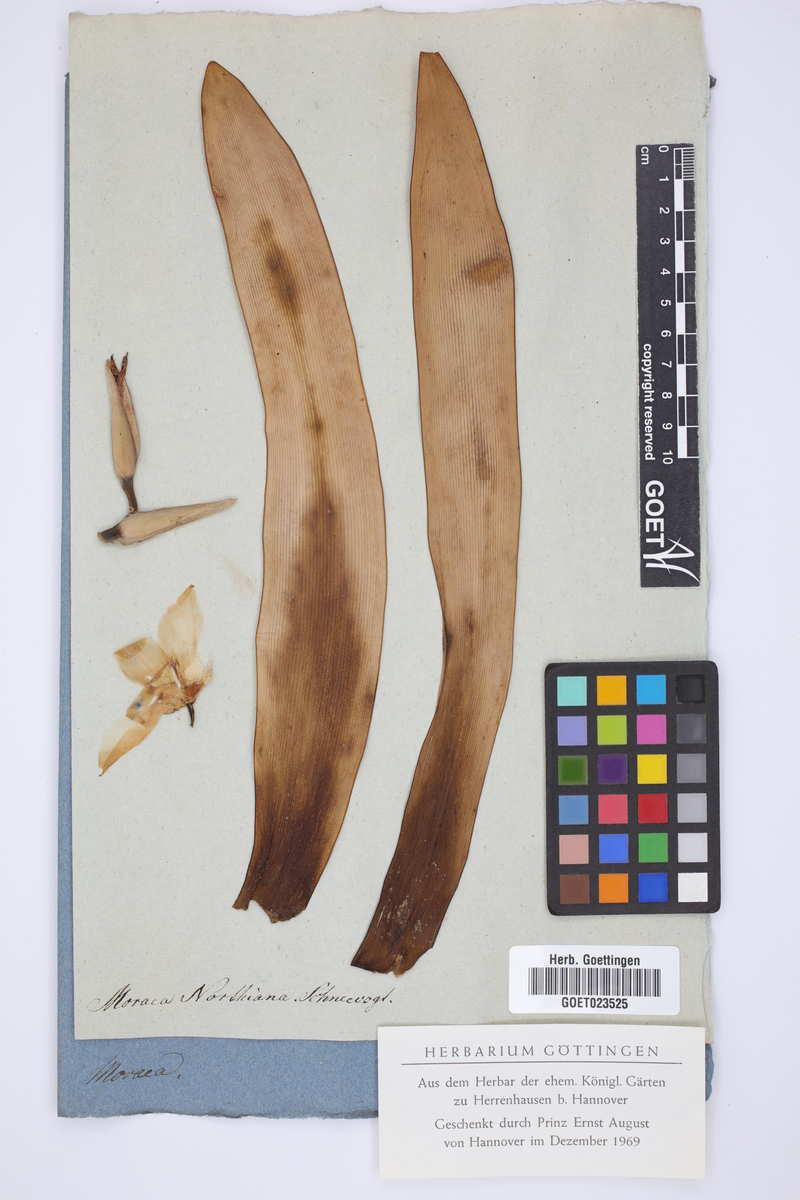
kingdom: Plantae
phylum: Tracheophyta
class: Liliopsida
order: Asparagales
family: Iridaceae
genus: Trimezia
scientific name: Trimezia northiana
